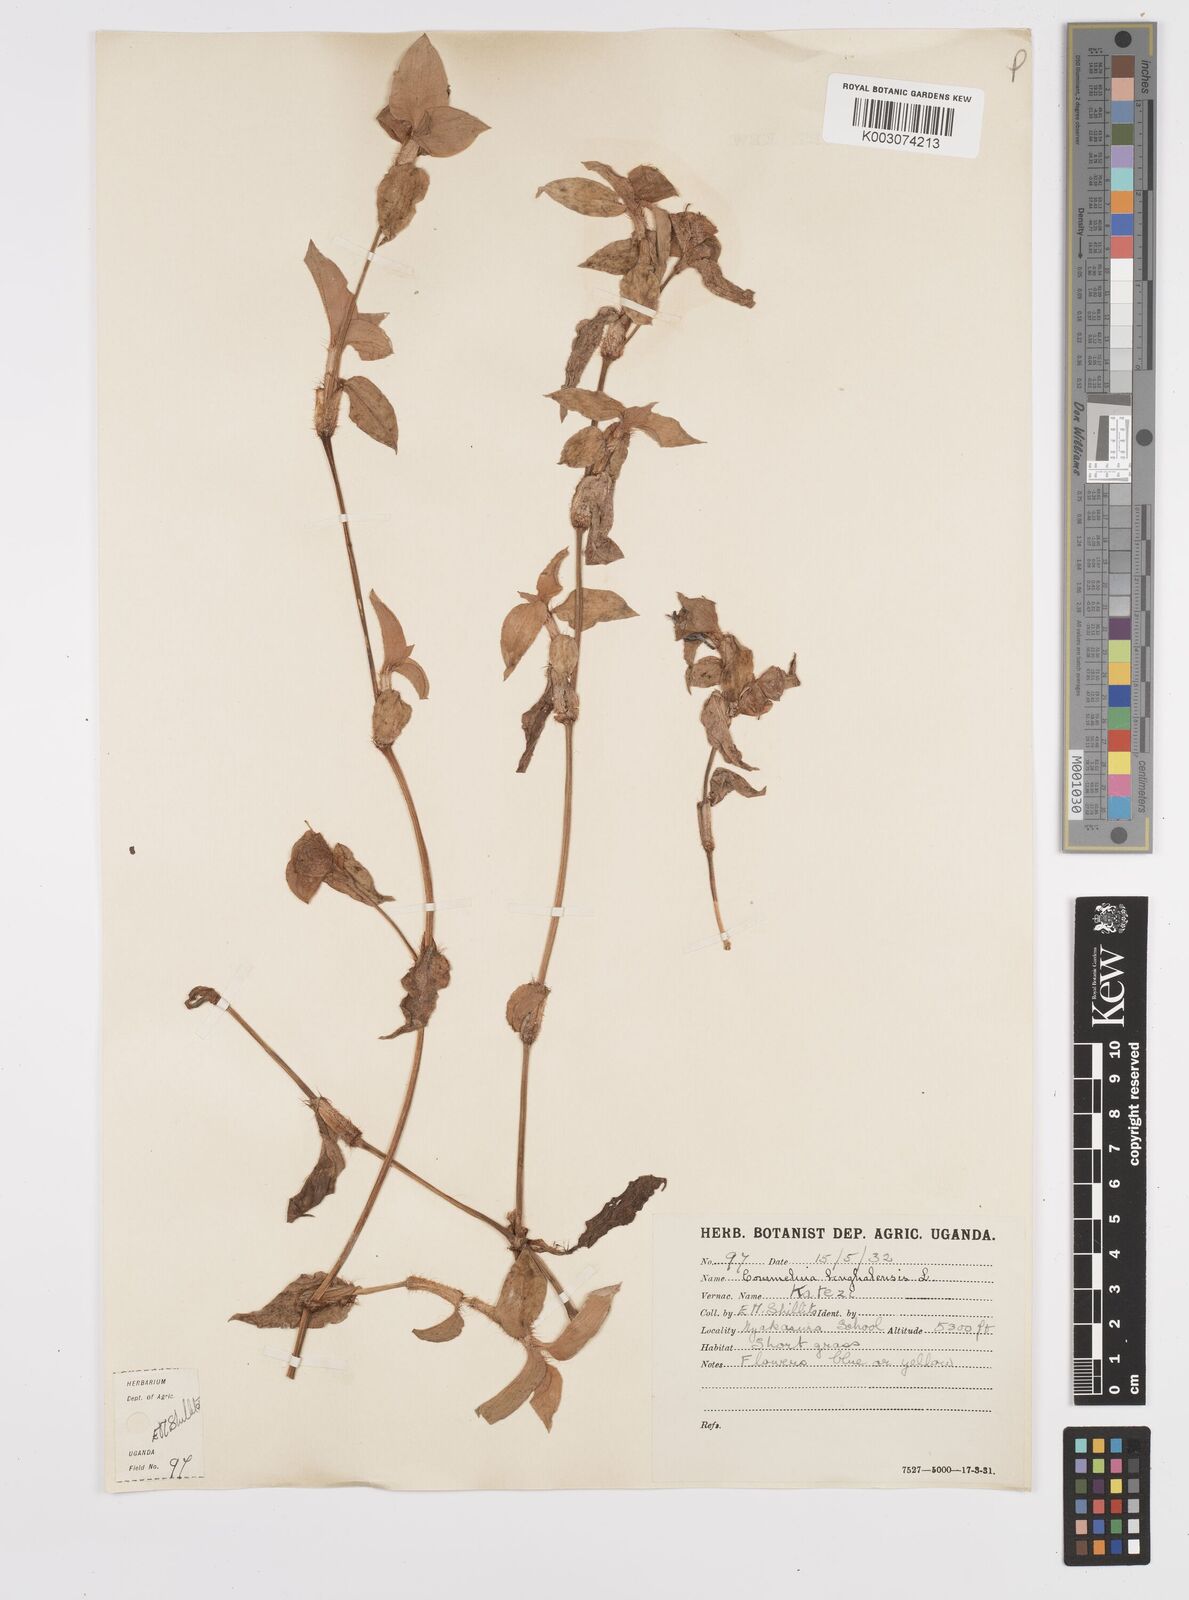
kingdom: Plantae
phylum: Tracheophyta
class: Liliopsida
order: Commelinales
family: Commelinaceae
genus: Commelina
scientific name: Commelina benghalensis
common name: Jio
